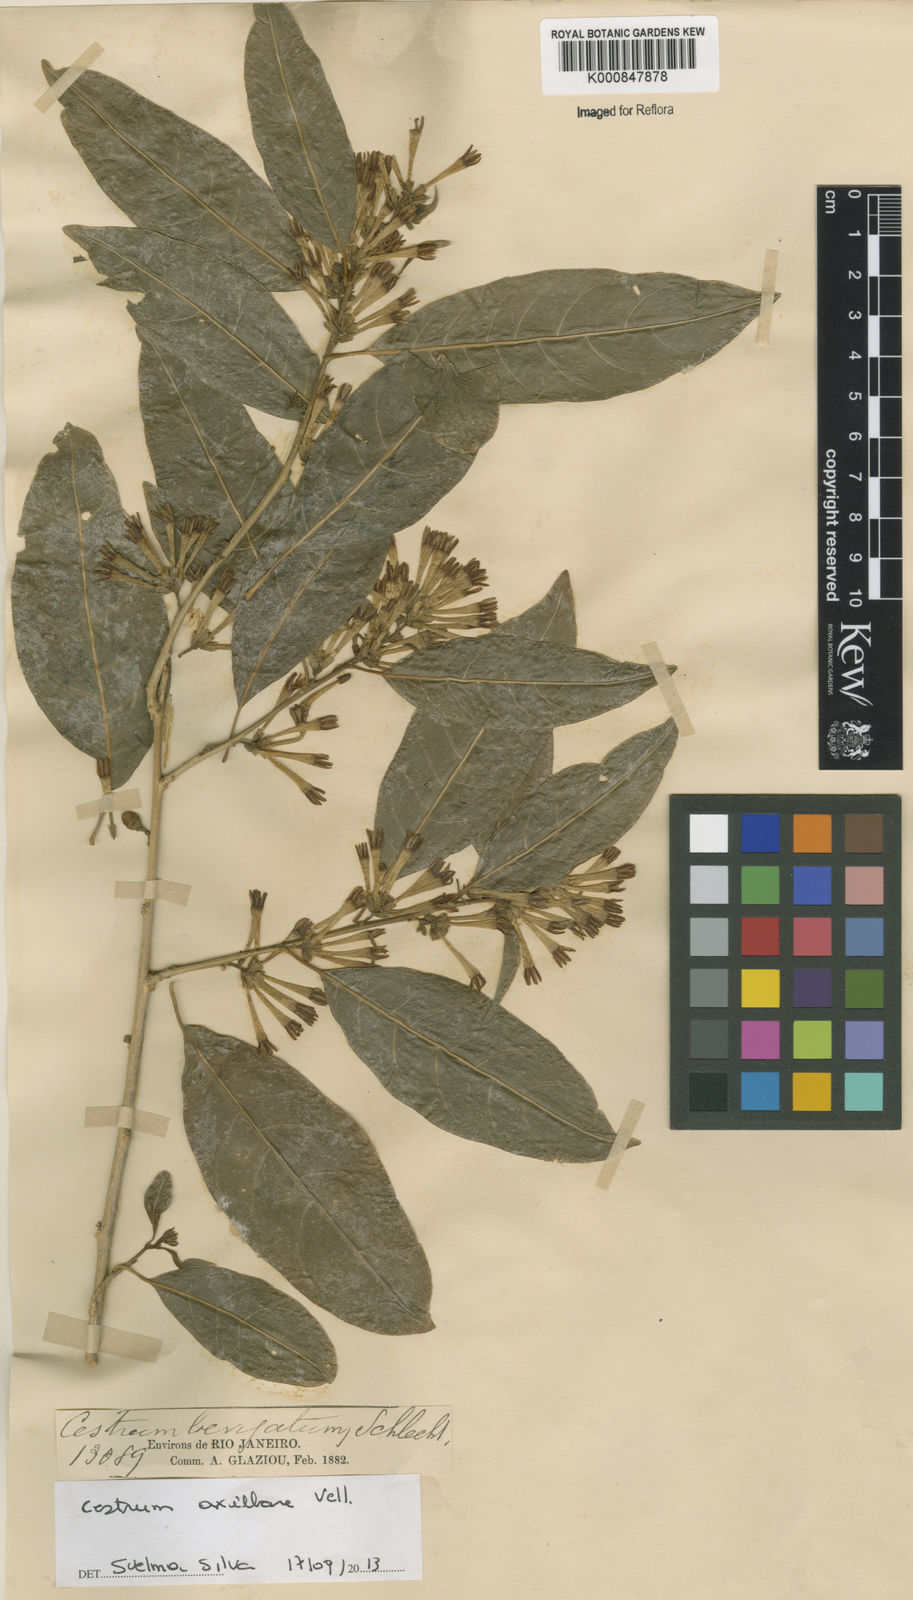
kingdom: Plantae
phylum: Tracheophyta
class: Magnoliopsida
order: Solanales
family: Solanaceae
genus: Cestrum
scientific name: Cestrum laevigatum
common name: Inkberry
